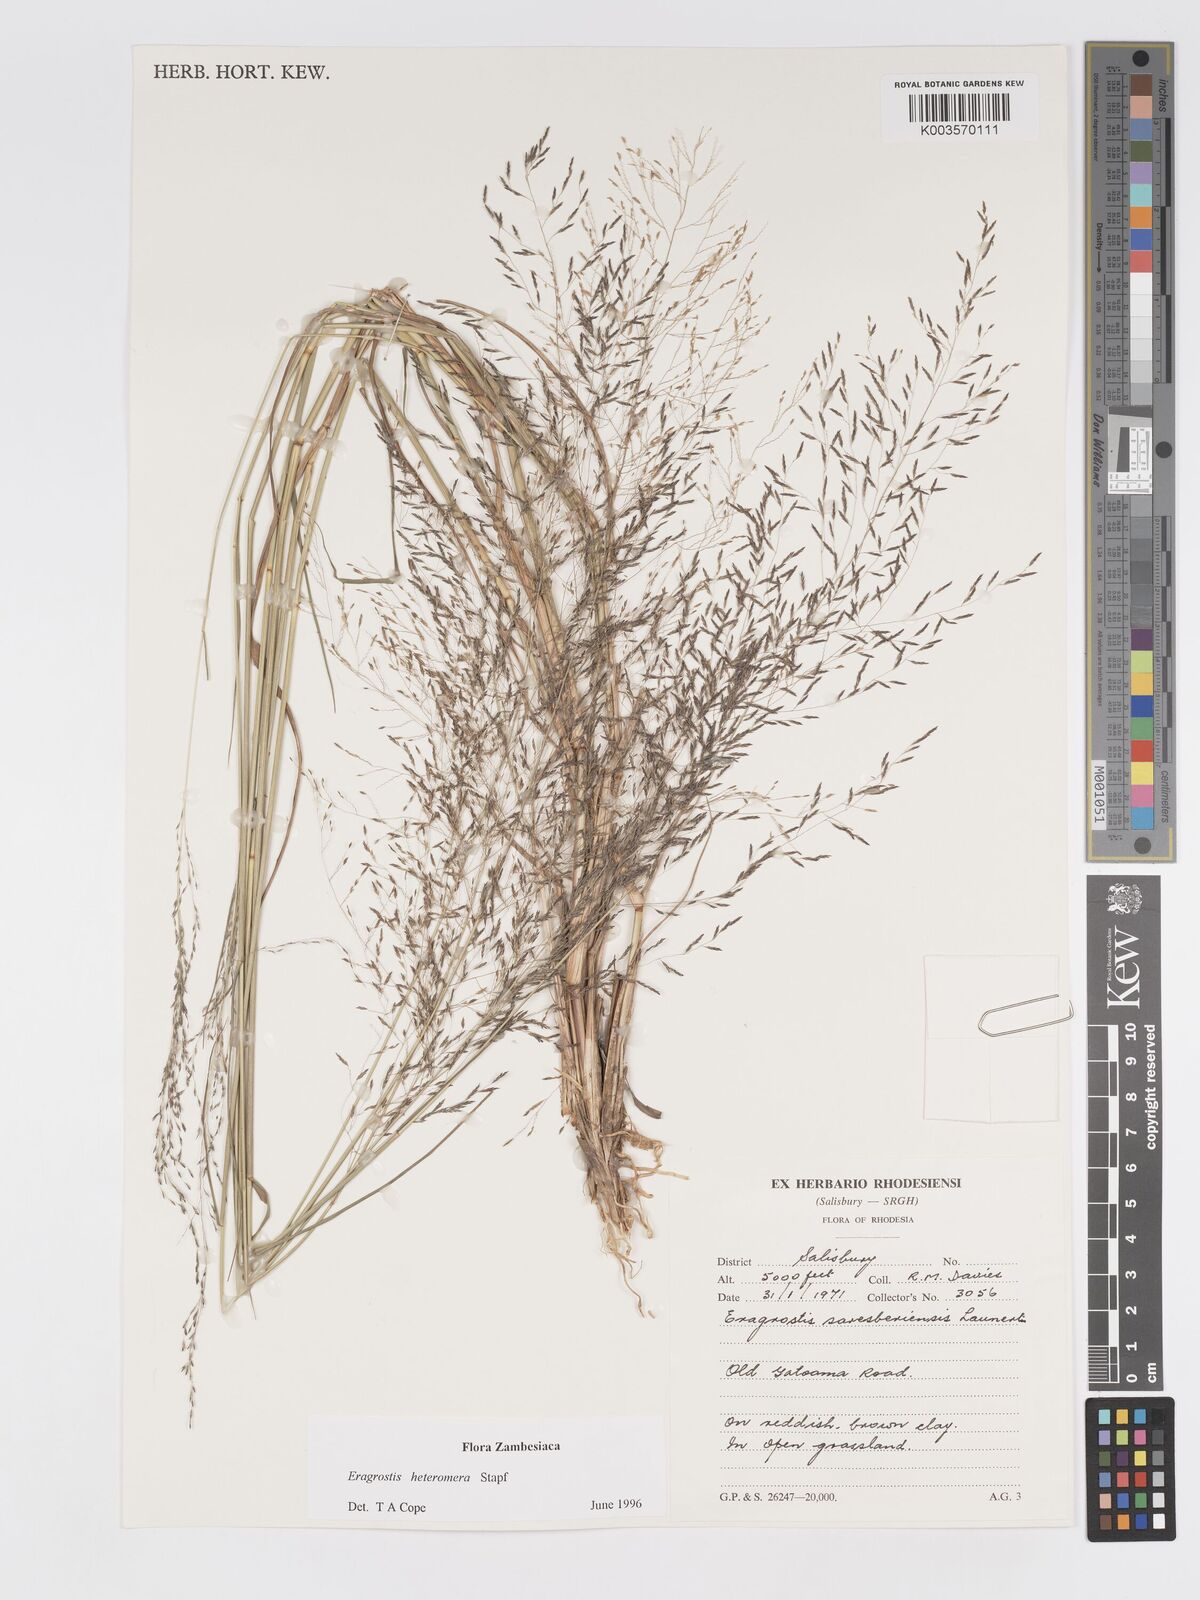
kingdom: Plantae
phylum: Tracheophyta
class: Liliopsida
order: Poales
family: Poaceae
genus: Eragrostis
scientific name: Eragrostis heteromera
